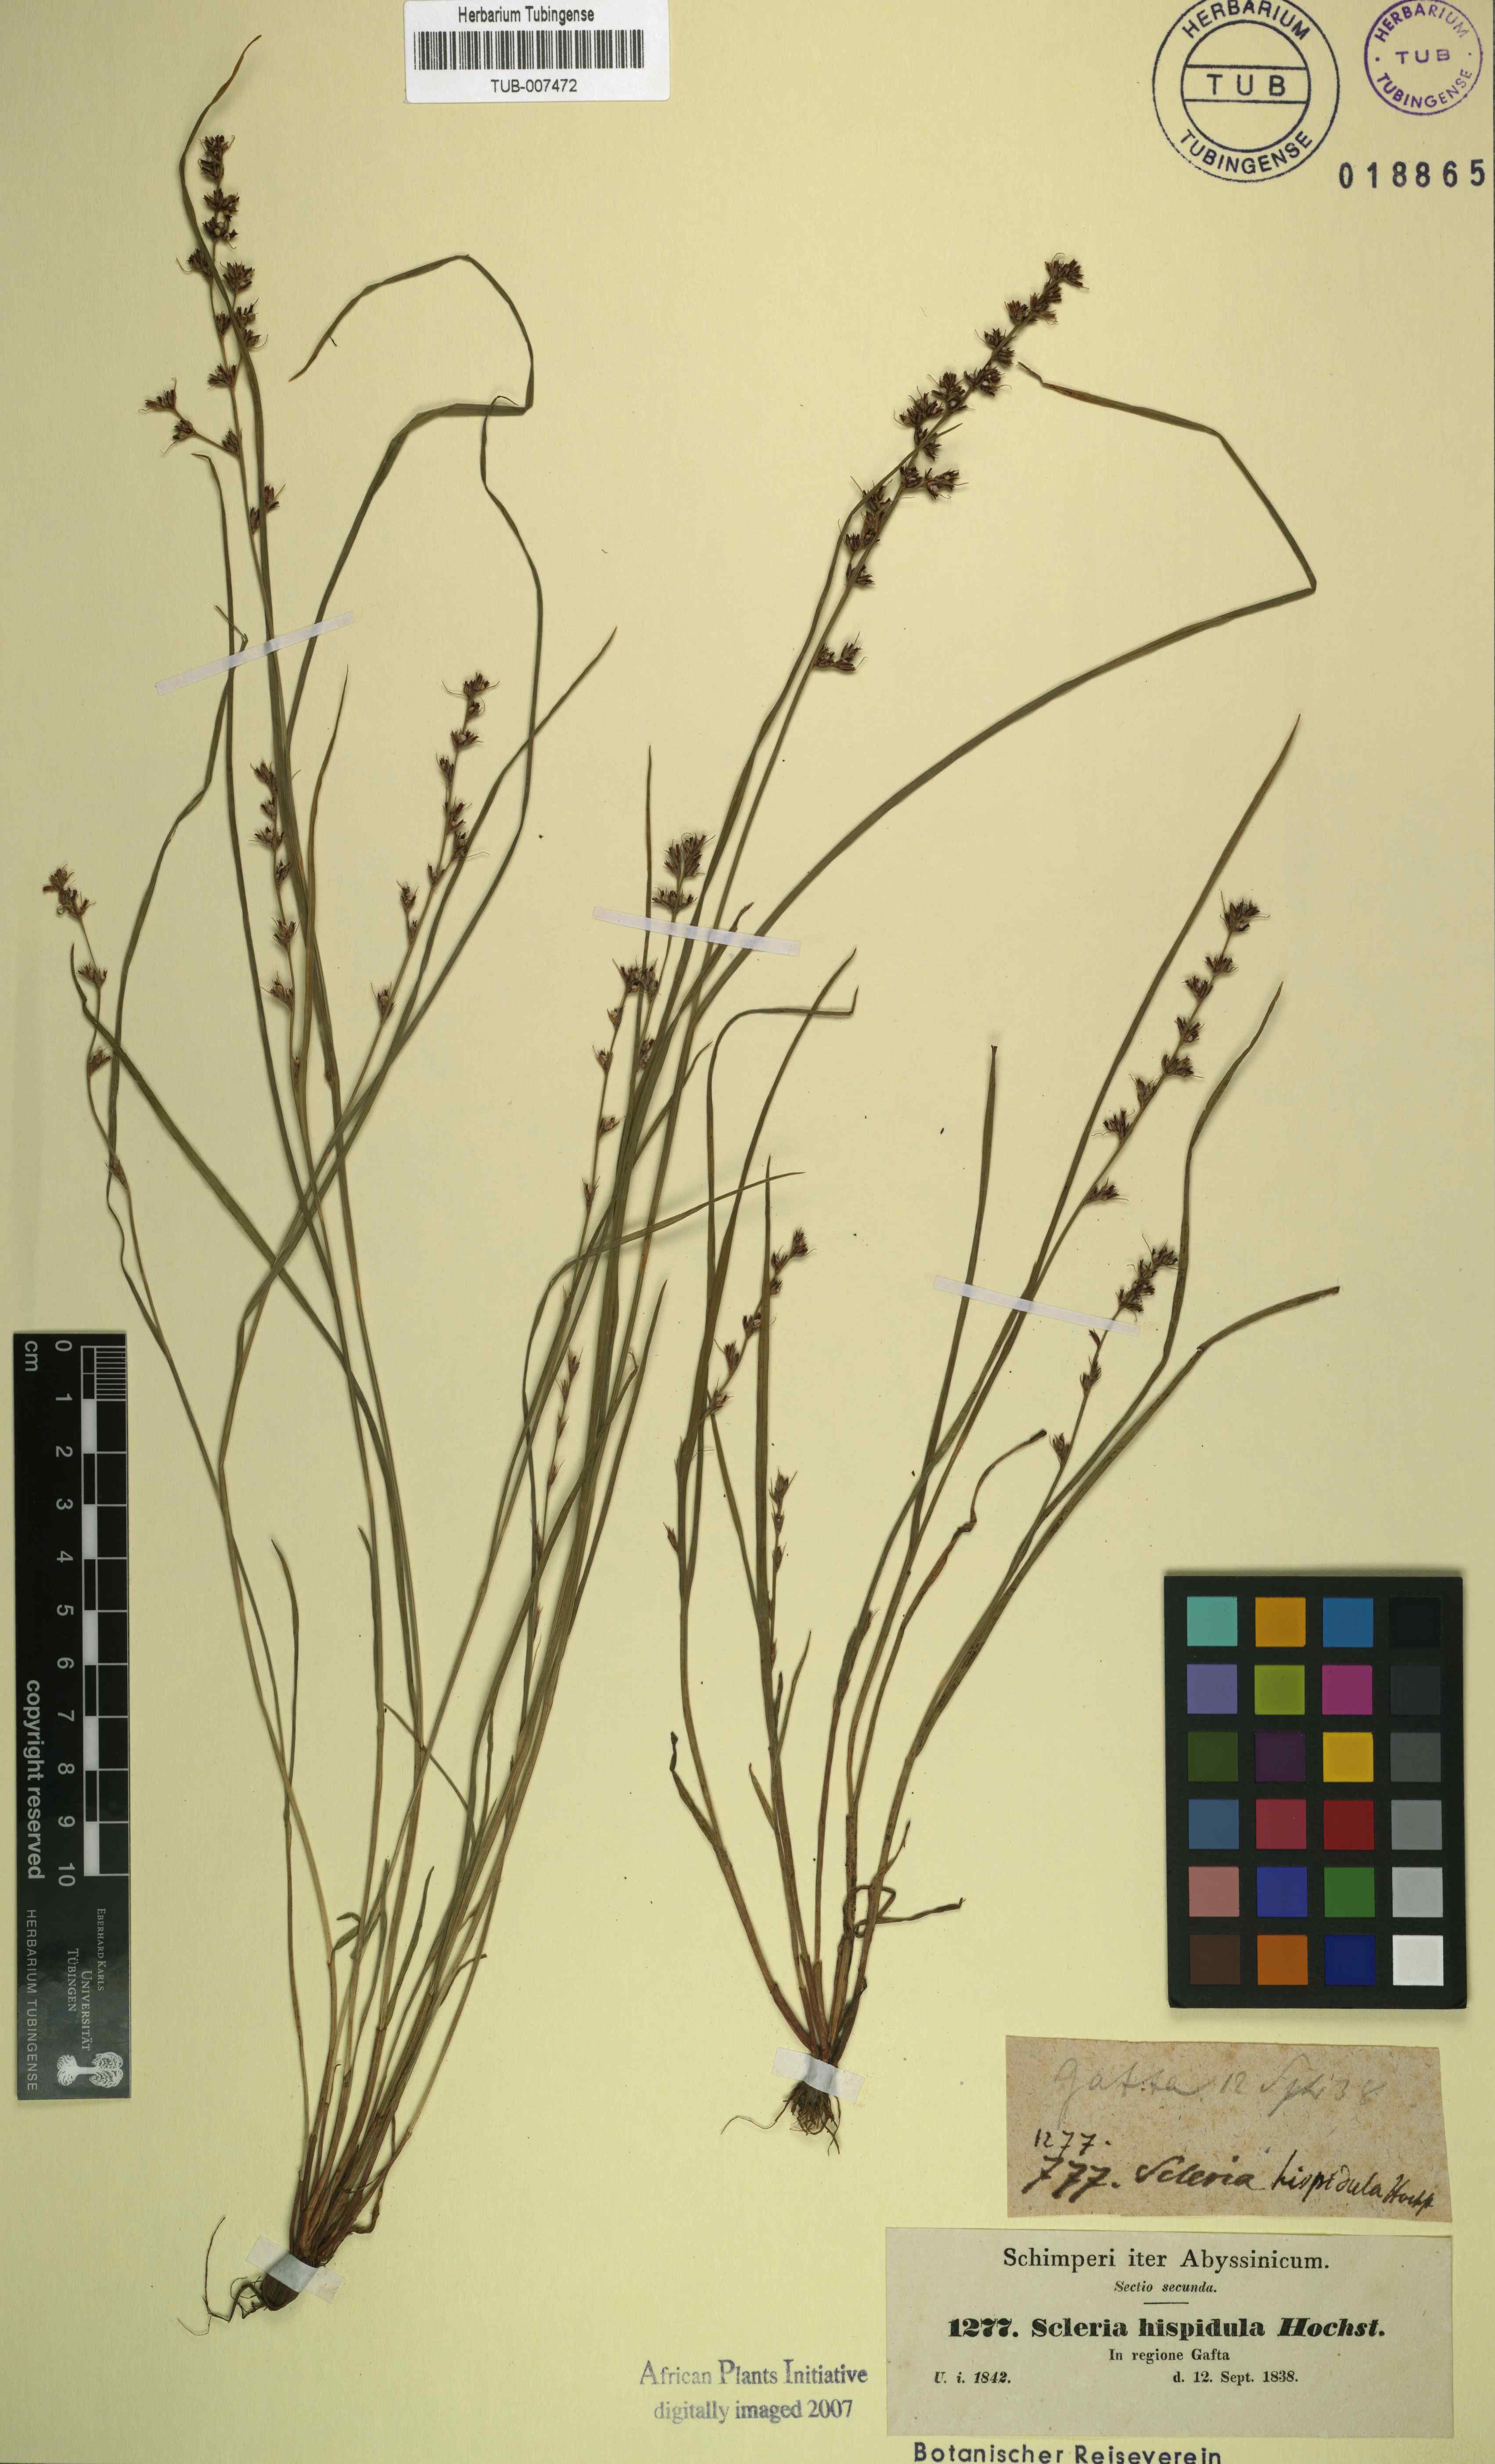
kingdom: Plantae
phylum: Tracheophyta
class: Liliopsida
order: Poales
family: Cyperaceae
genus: Scleria
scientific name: Scleria hispidula
